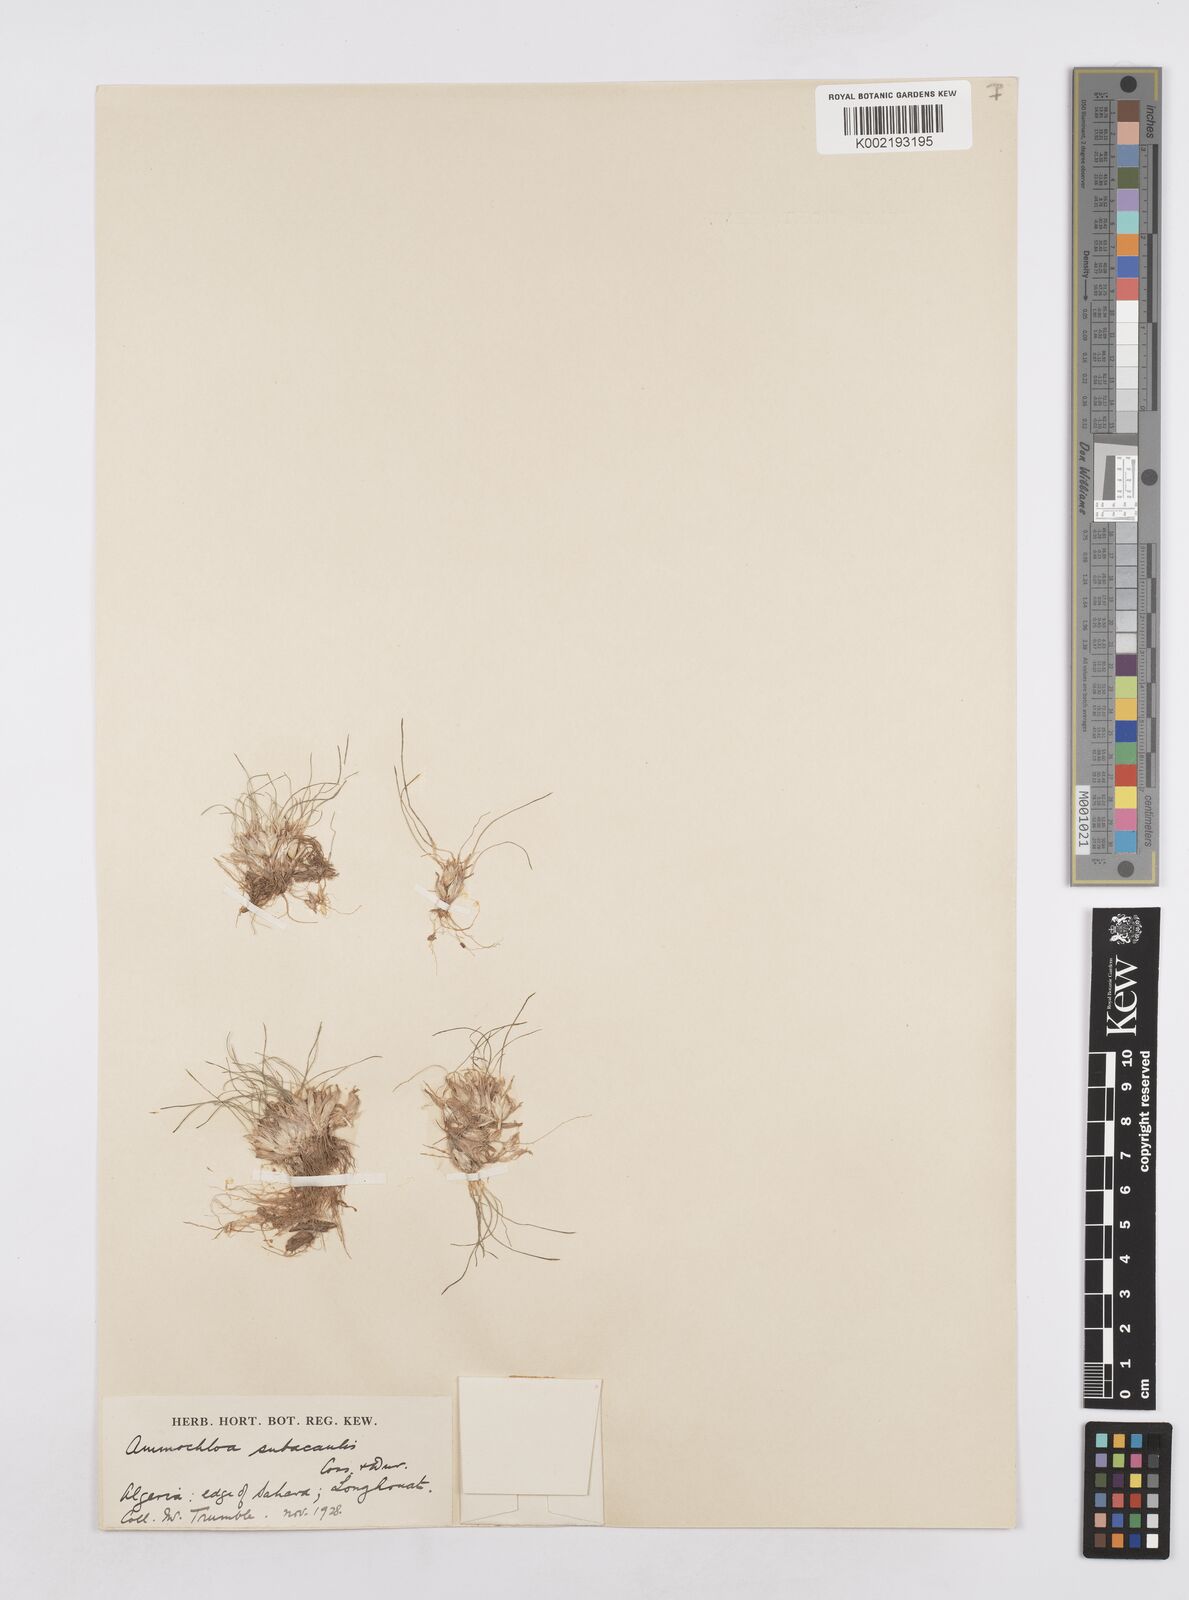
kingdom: Plantae
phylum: Tracheophyta
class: Liliopsida
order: Poales
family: Poaceae
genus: Ammochloa
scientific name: Ammochloa palaestina
